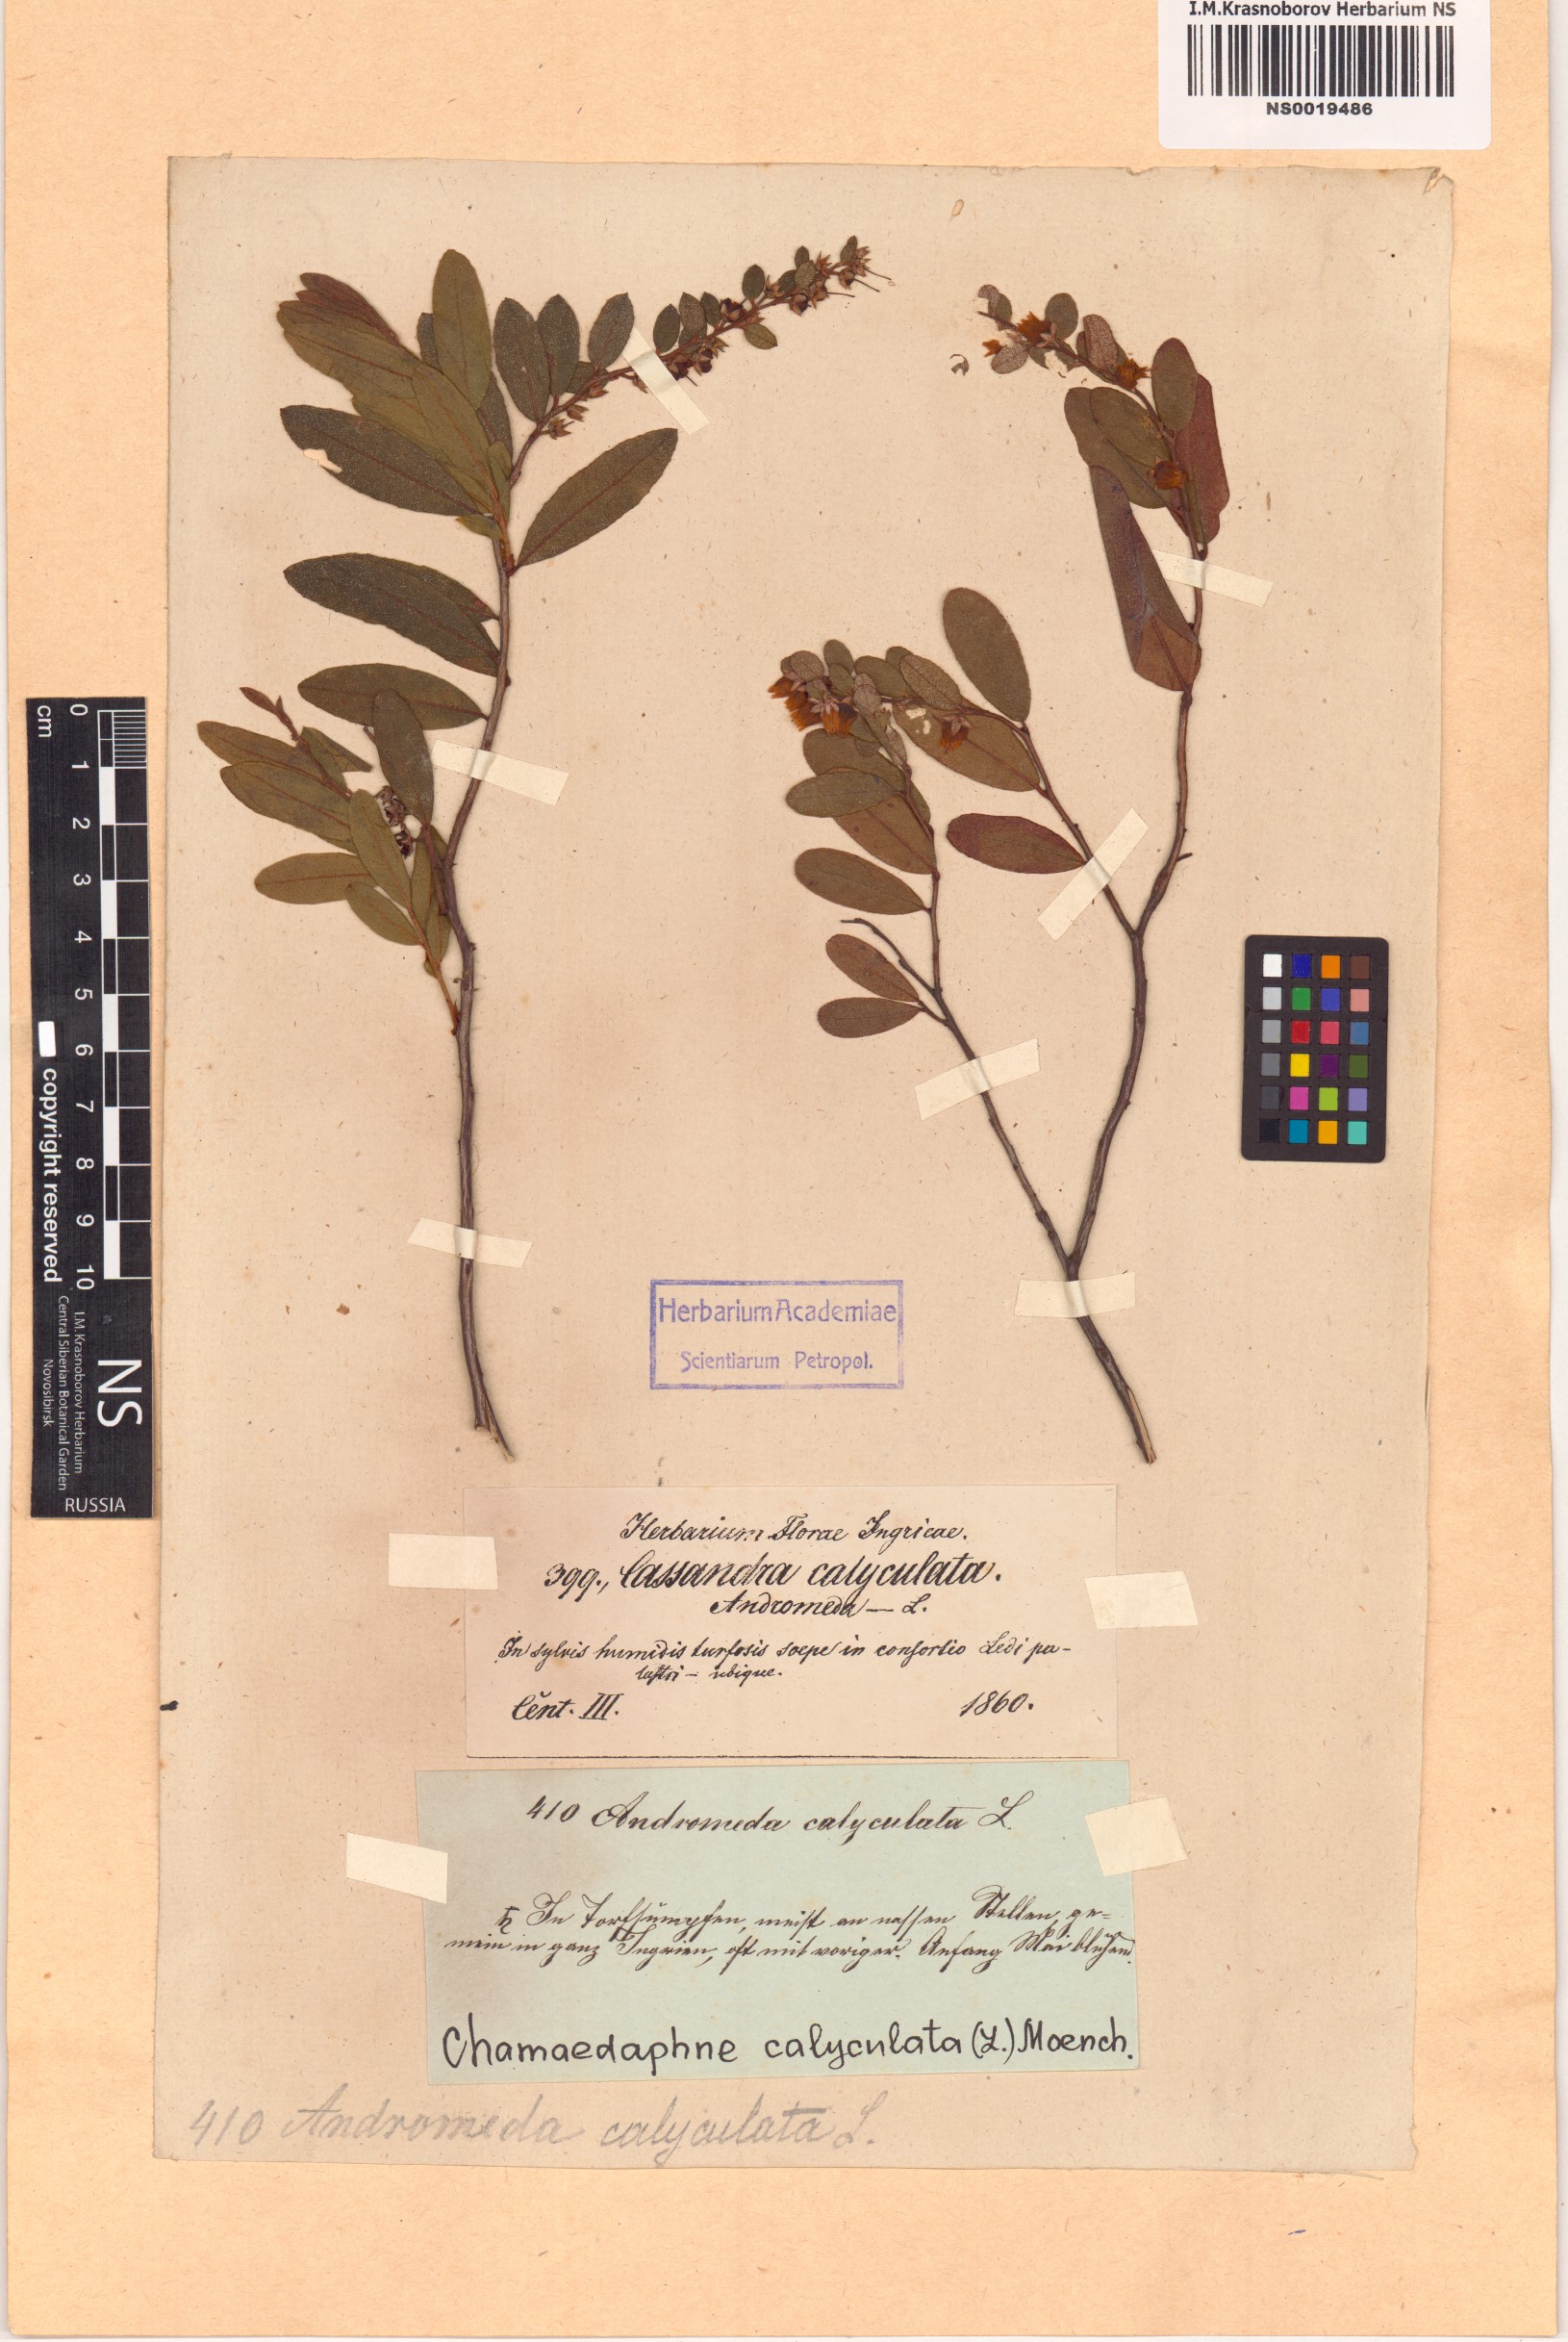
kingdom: Plantae
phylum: Tracheophyta
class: Magnoliopsida
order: Ericales
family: Ericaceae
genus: Chamaedaphne
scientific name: Chamaedaphne calyculata
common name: Leatherleaf
